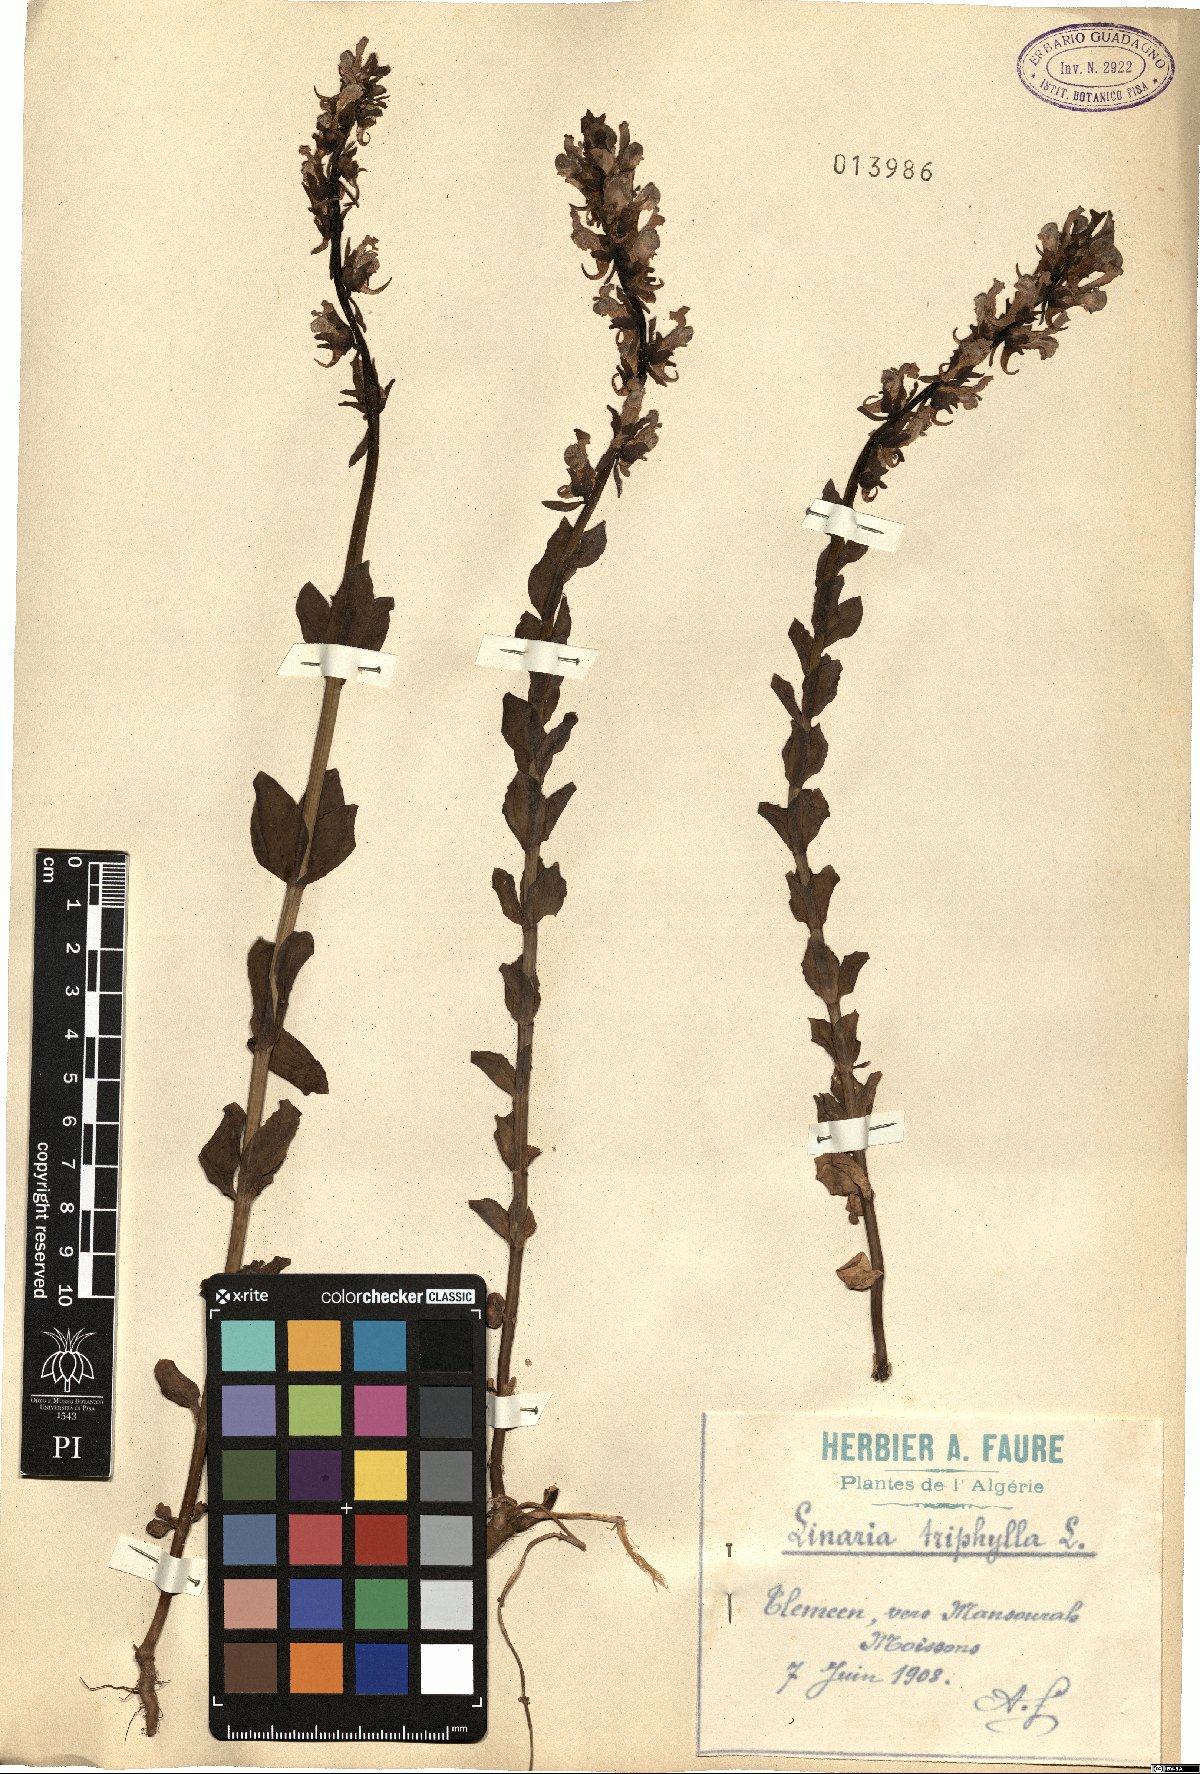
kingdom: Plantae
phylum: Tracheophyta
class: Magnoliopsida
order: Lamiales
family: Plantaginaceae
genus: Linaria
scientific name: Linaria triphylla
